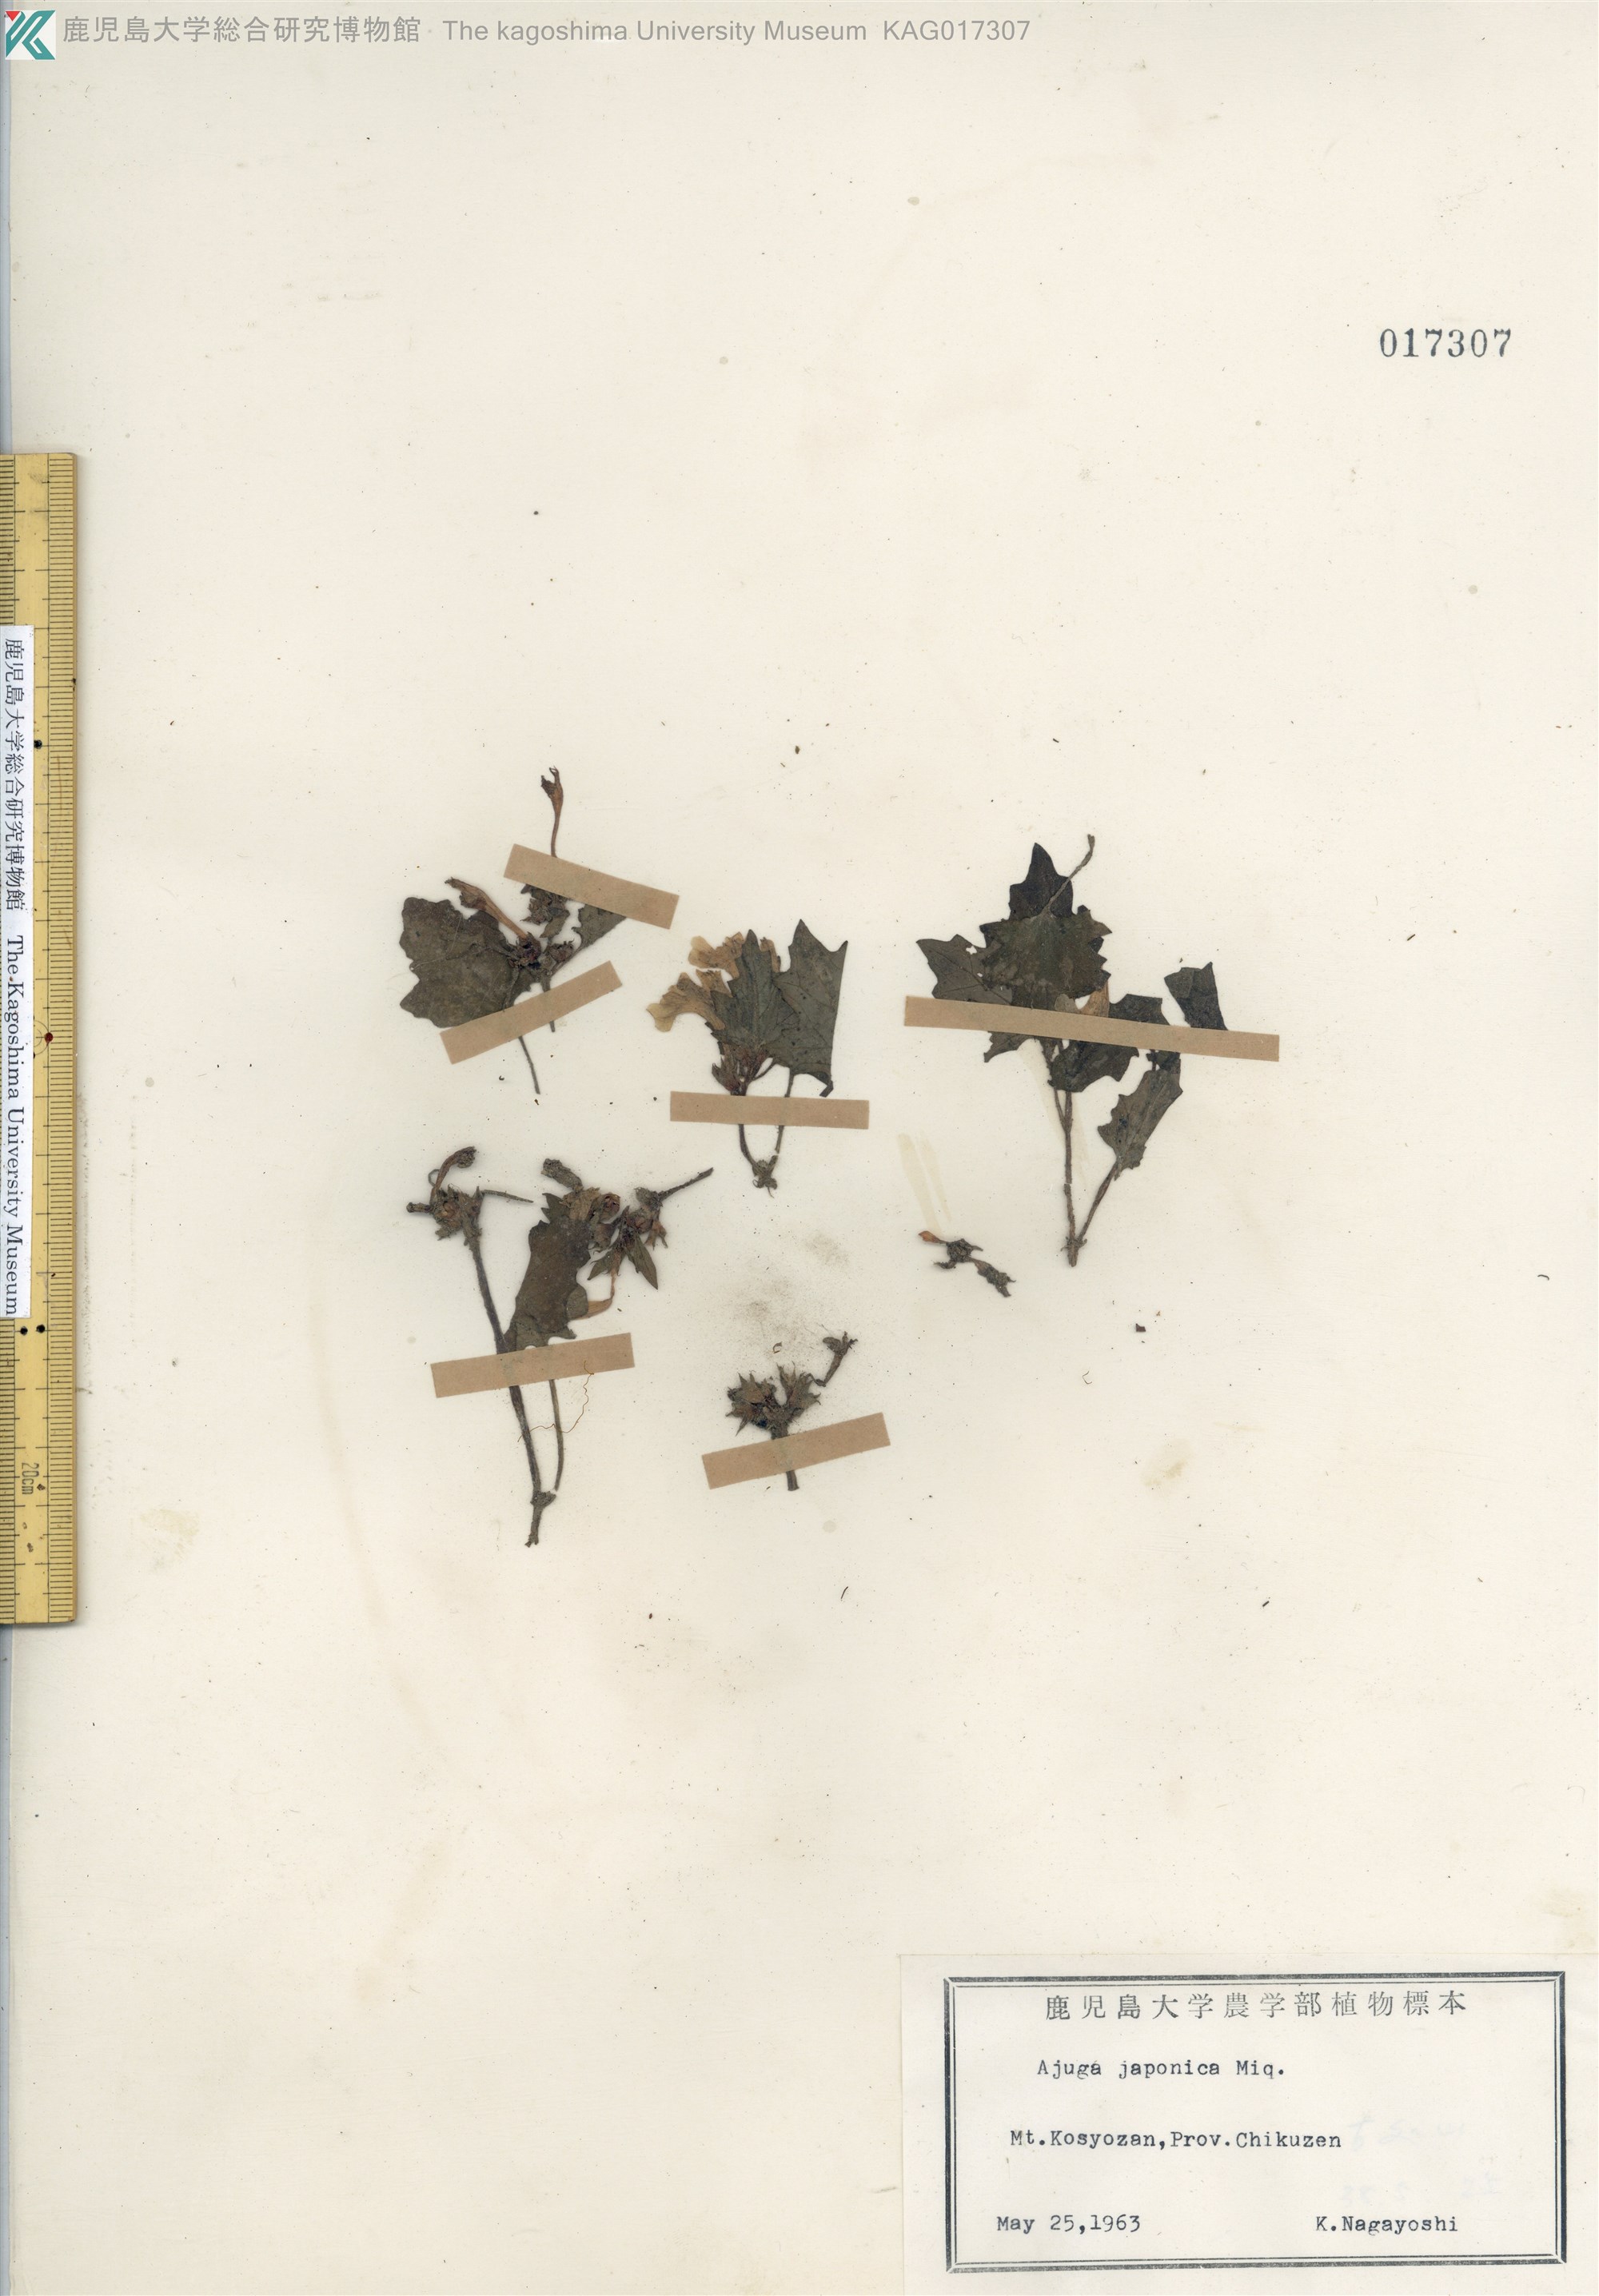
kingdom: Plantae
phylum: Tracheophyta
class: Magnoliopsida
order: Lamiales
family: Lamiaceae
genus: Ajuga
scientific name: Ajuga japonica
